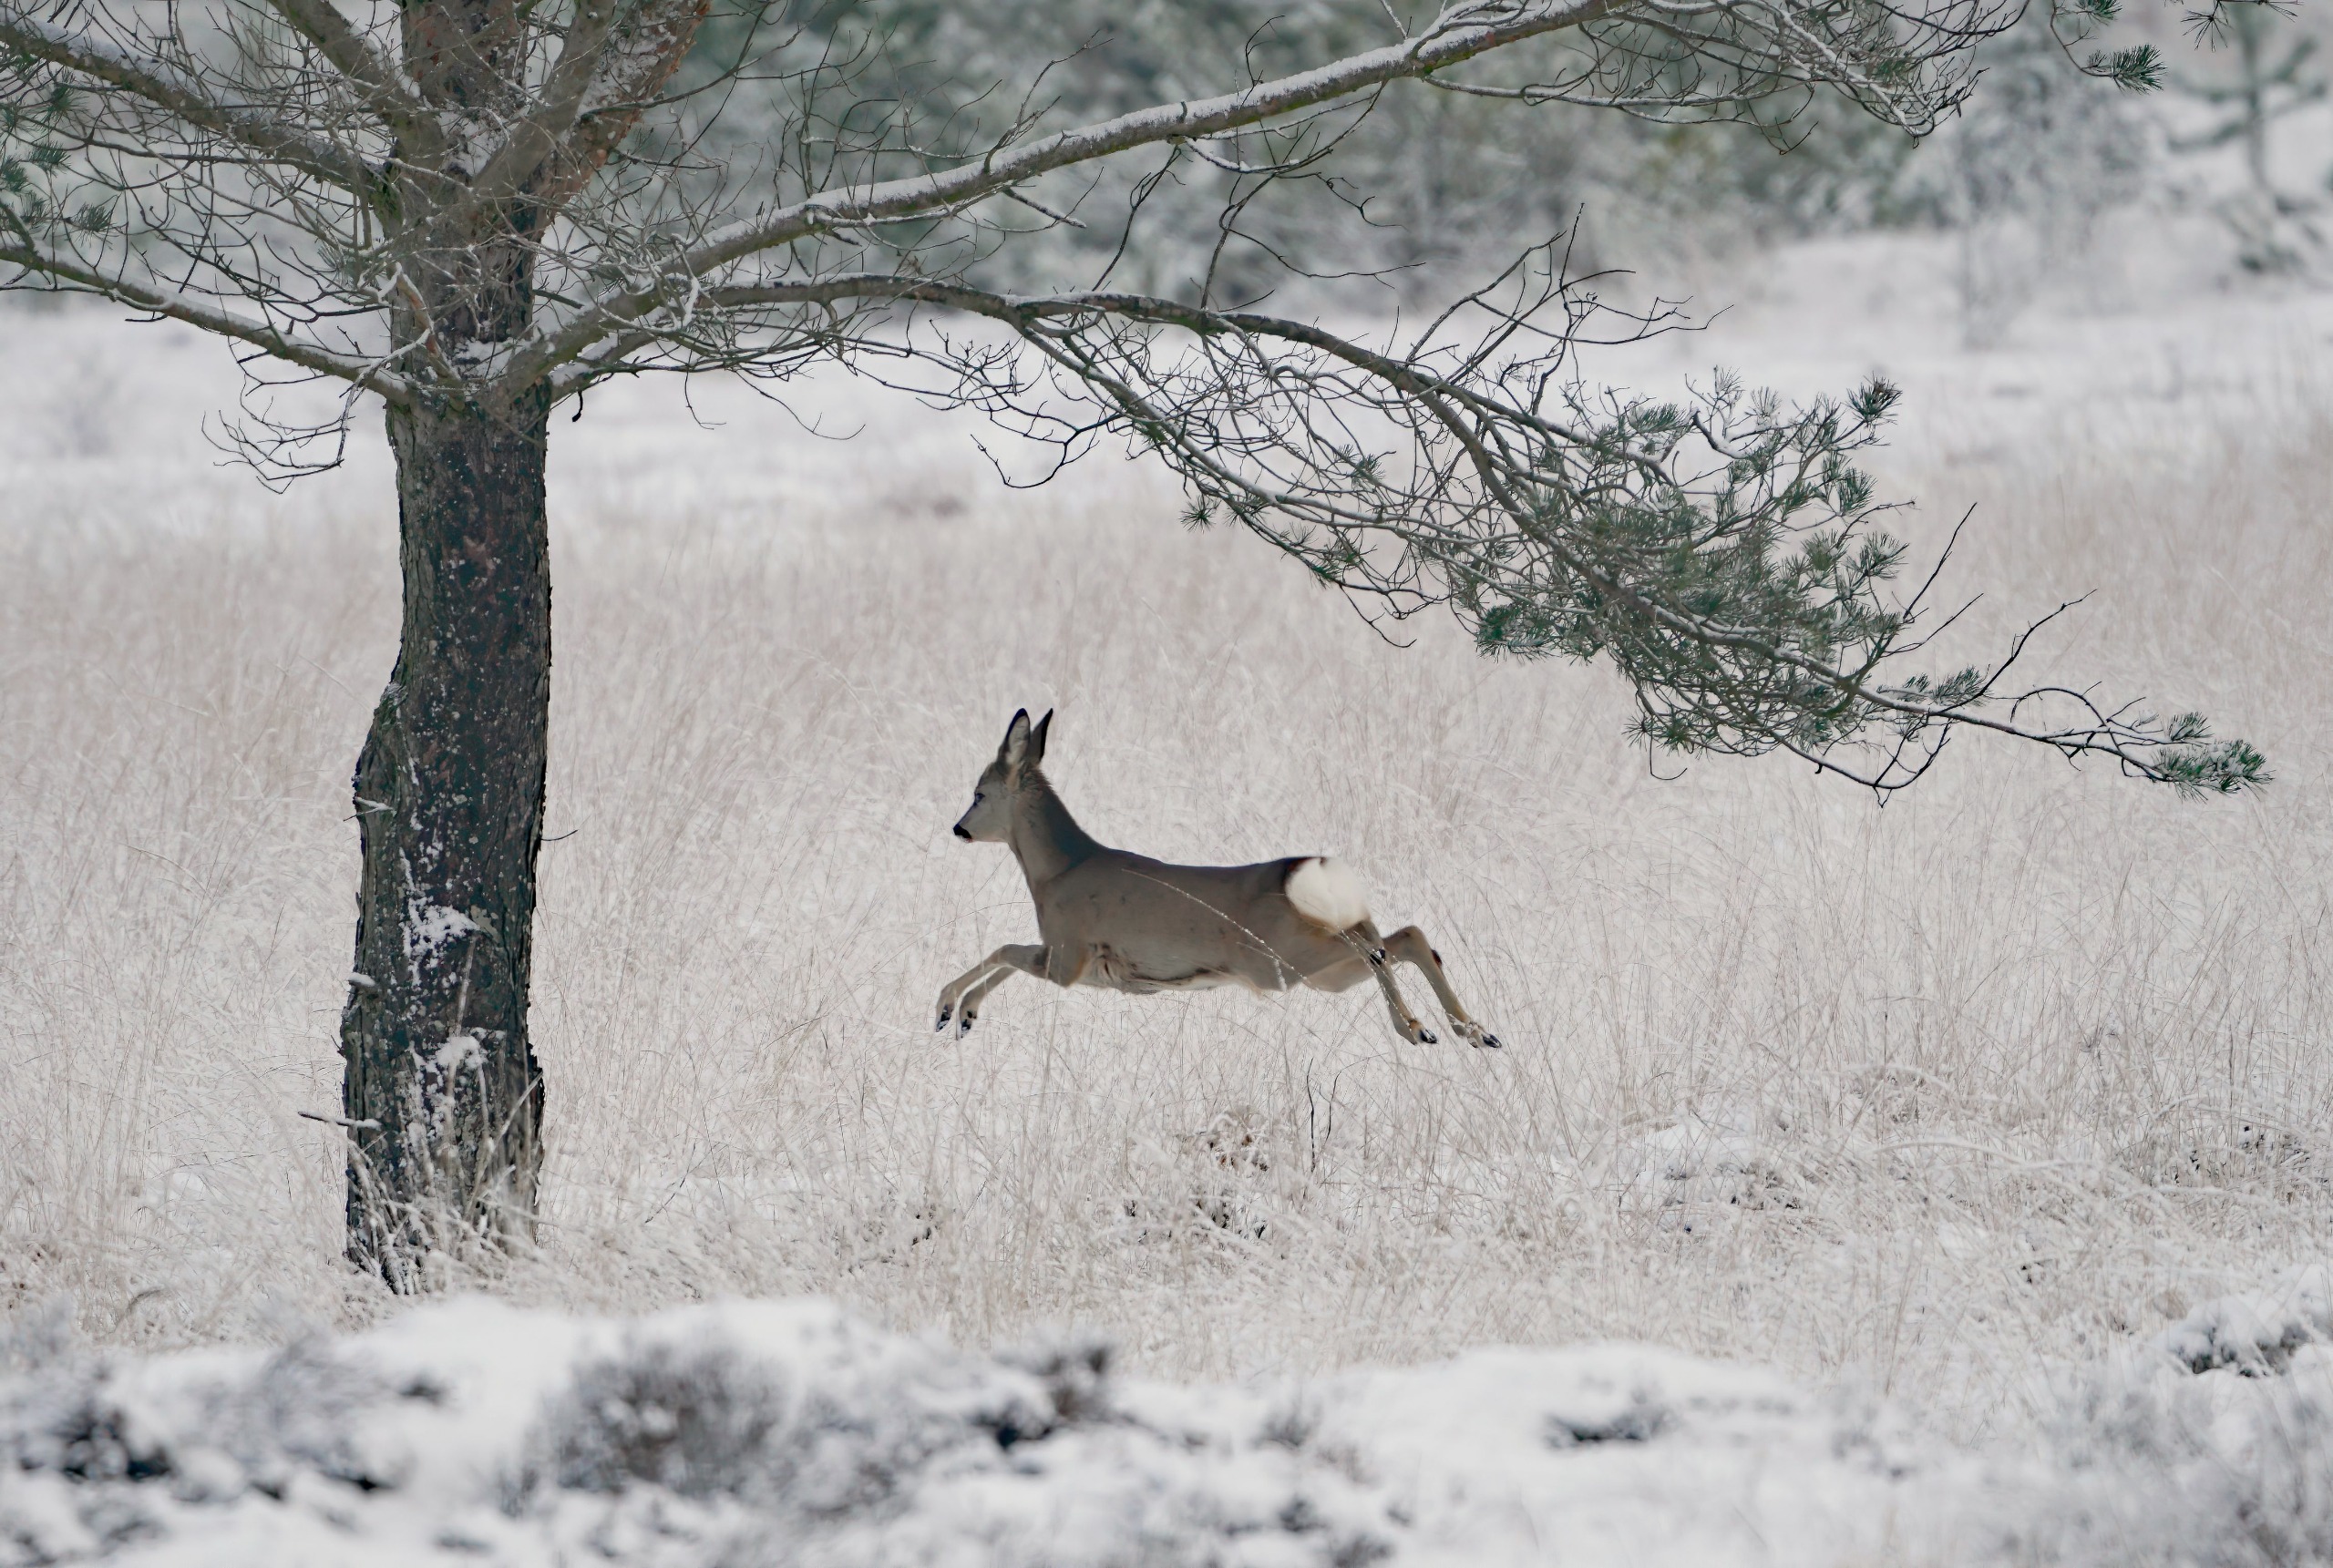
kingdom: Animalia
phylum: Chordata
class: Mammalia
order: Artiodactyla
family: Cervidae
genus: Capreolus
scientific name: Capreolus capreolus
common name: Rådyr
